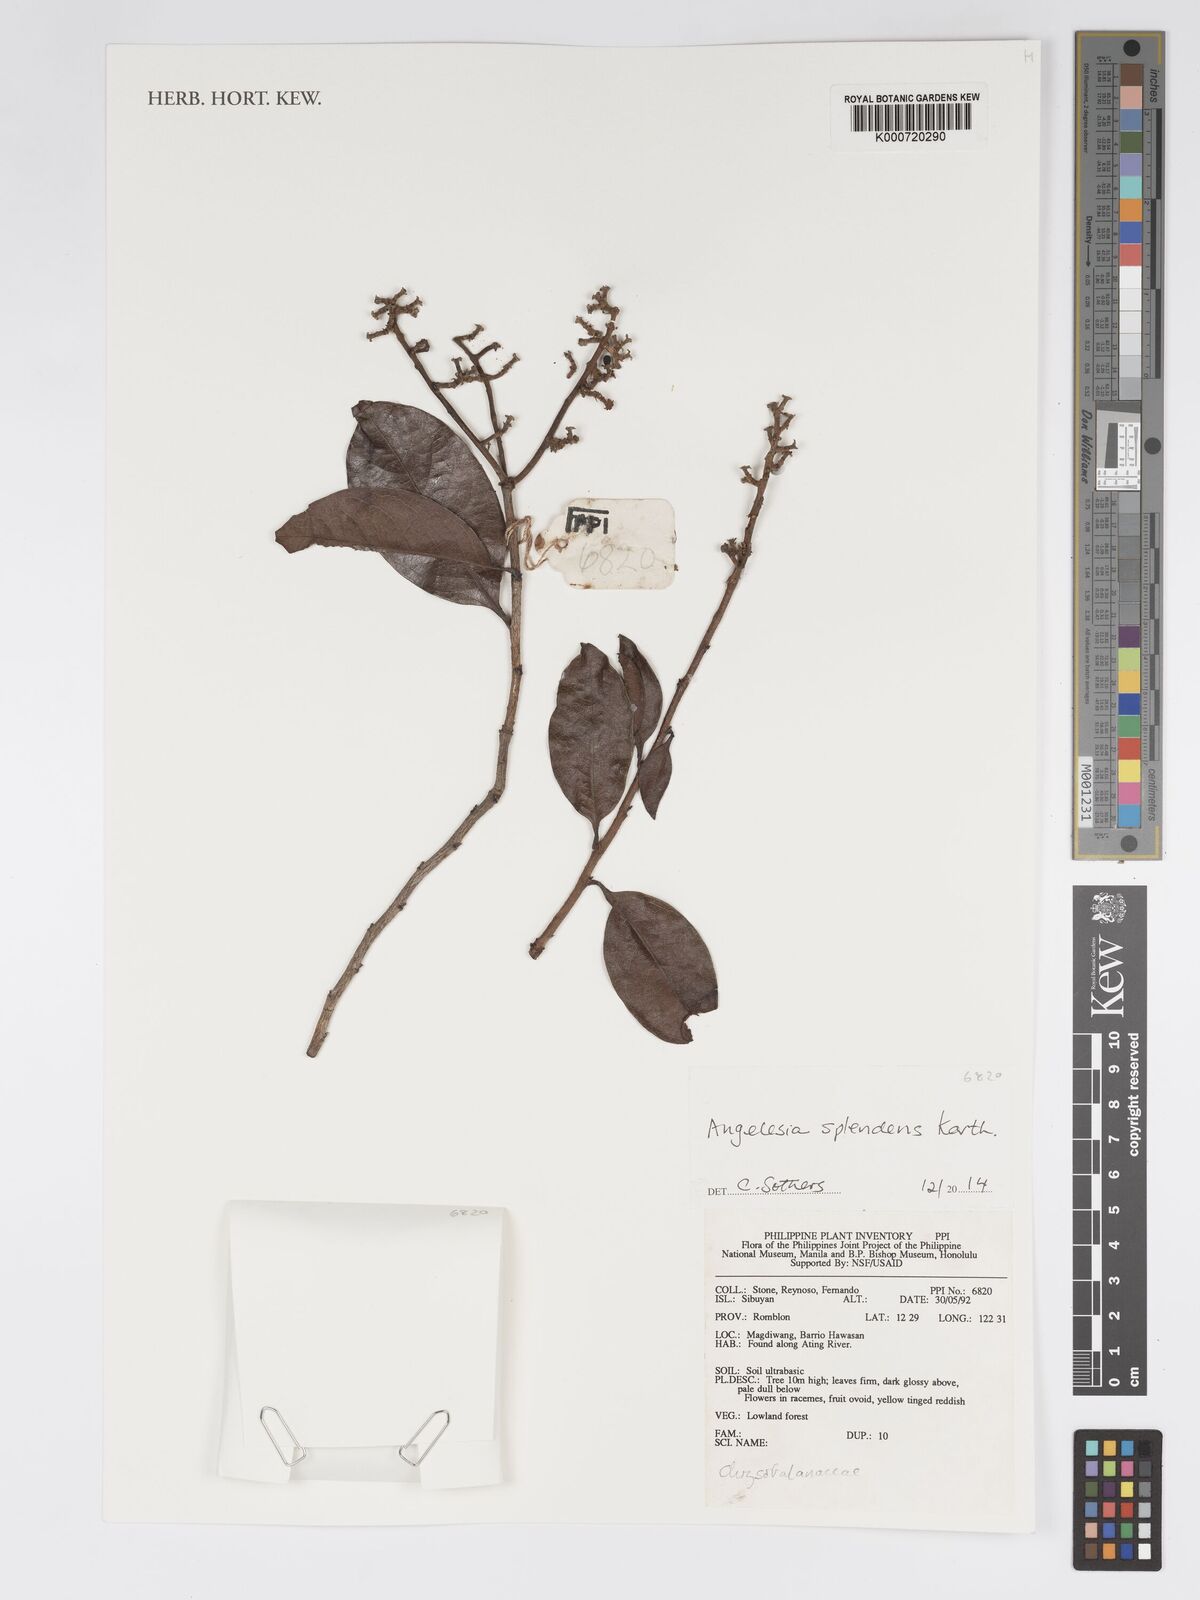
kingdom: Plantae
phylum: Tracheophyta
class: Magnoliopsida
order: Malpighiales
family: Chrysobalanaceae
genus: Angelesia
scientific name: Angelesia splendens
